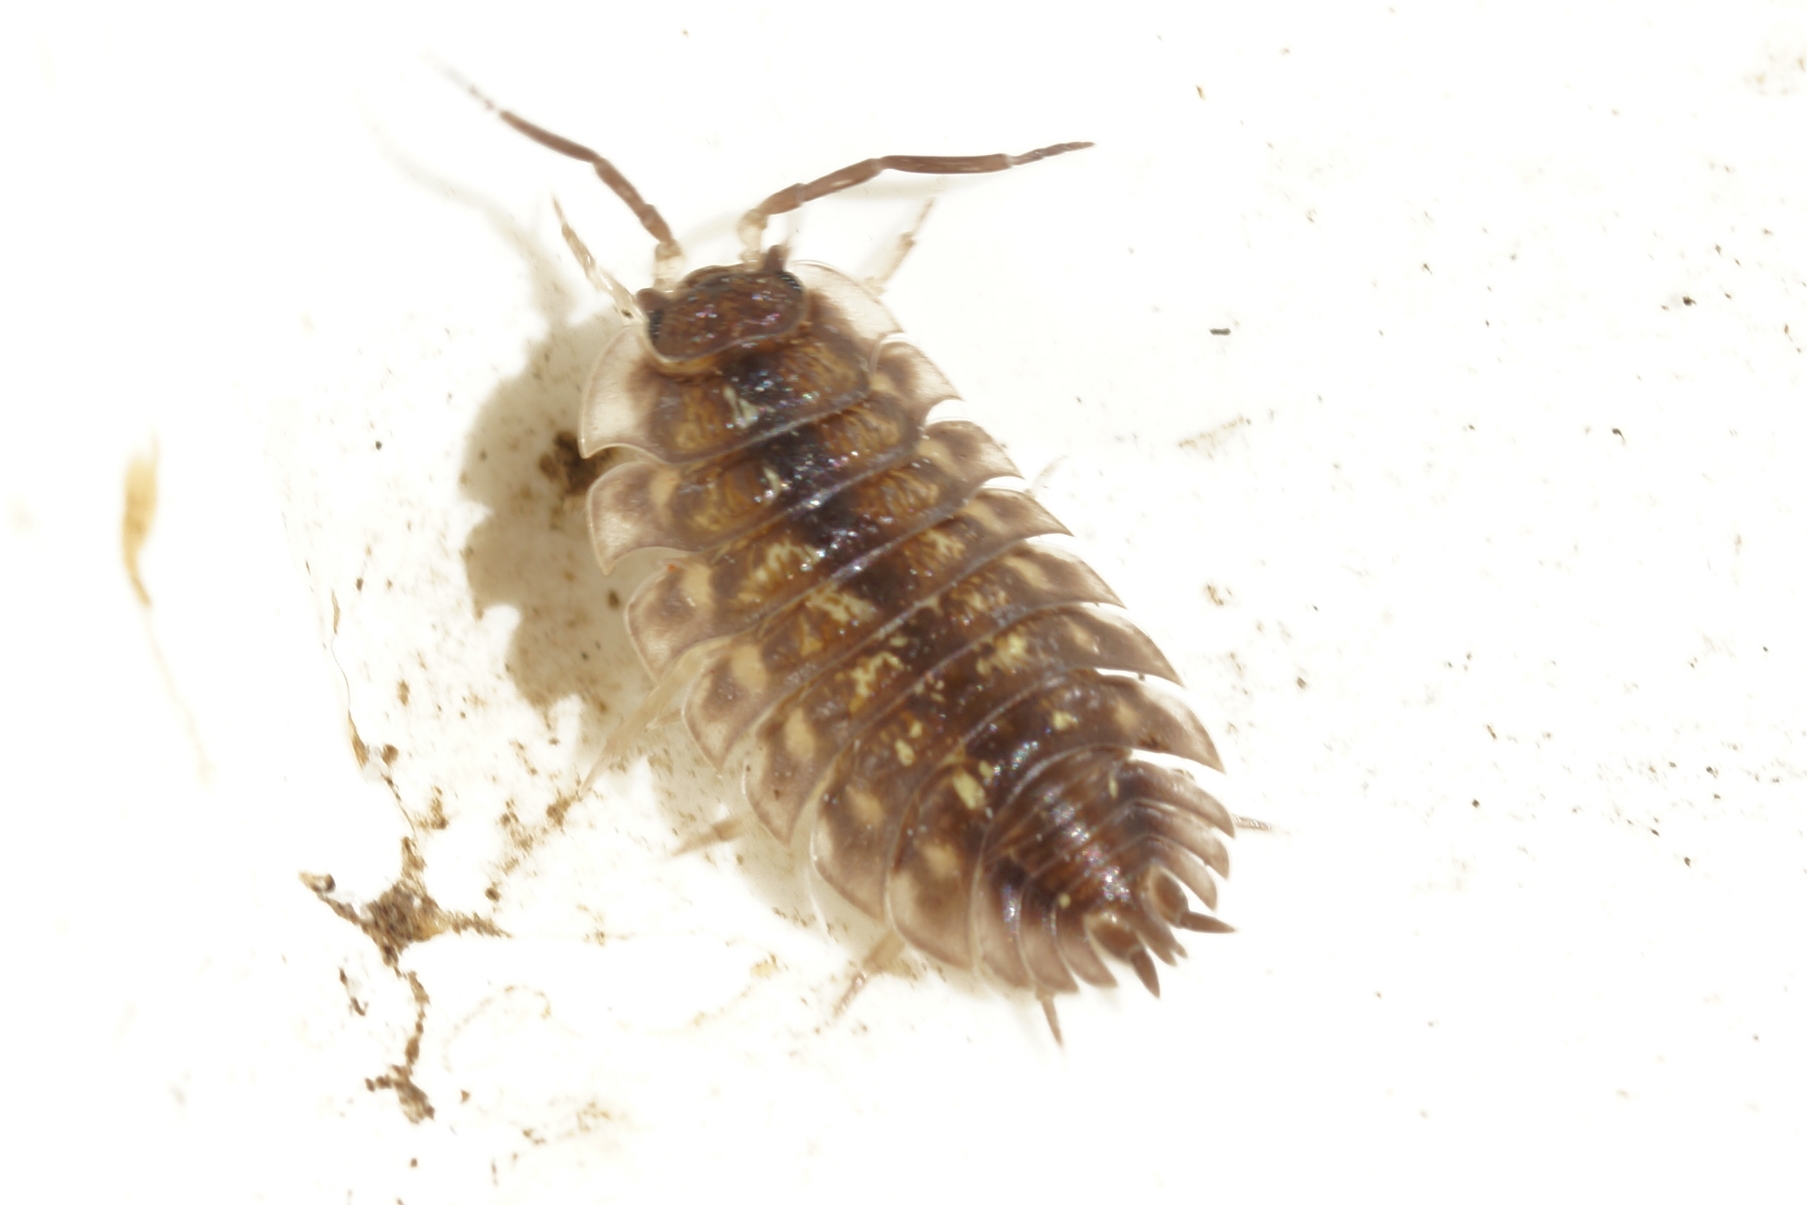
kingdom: Animalia
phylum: Arthropoda
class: Malacostraca
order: Isopoda
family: Oniscidae
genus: Oniscus
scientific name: Oniscus asellus
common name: Glat bænkebider
